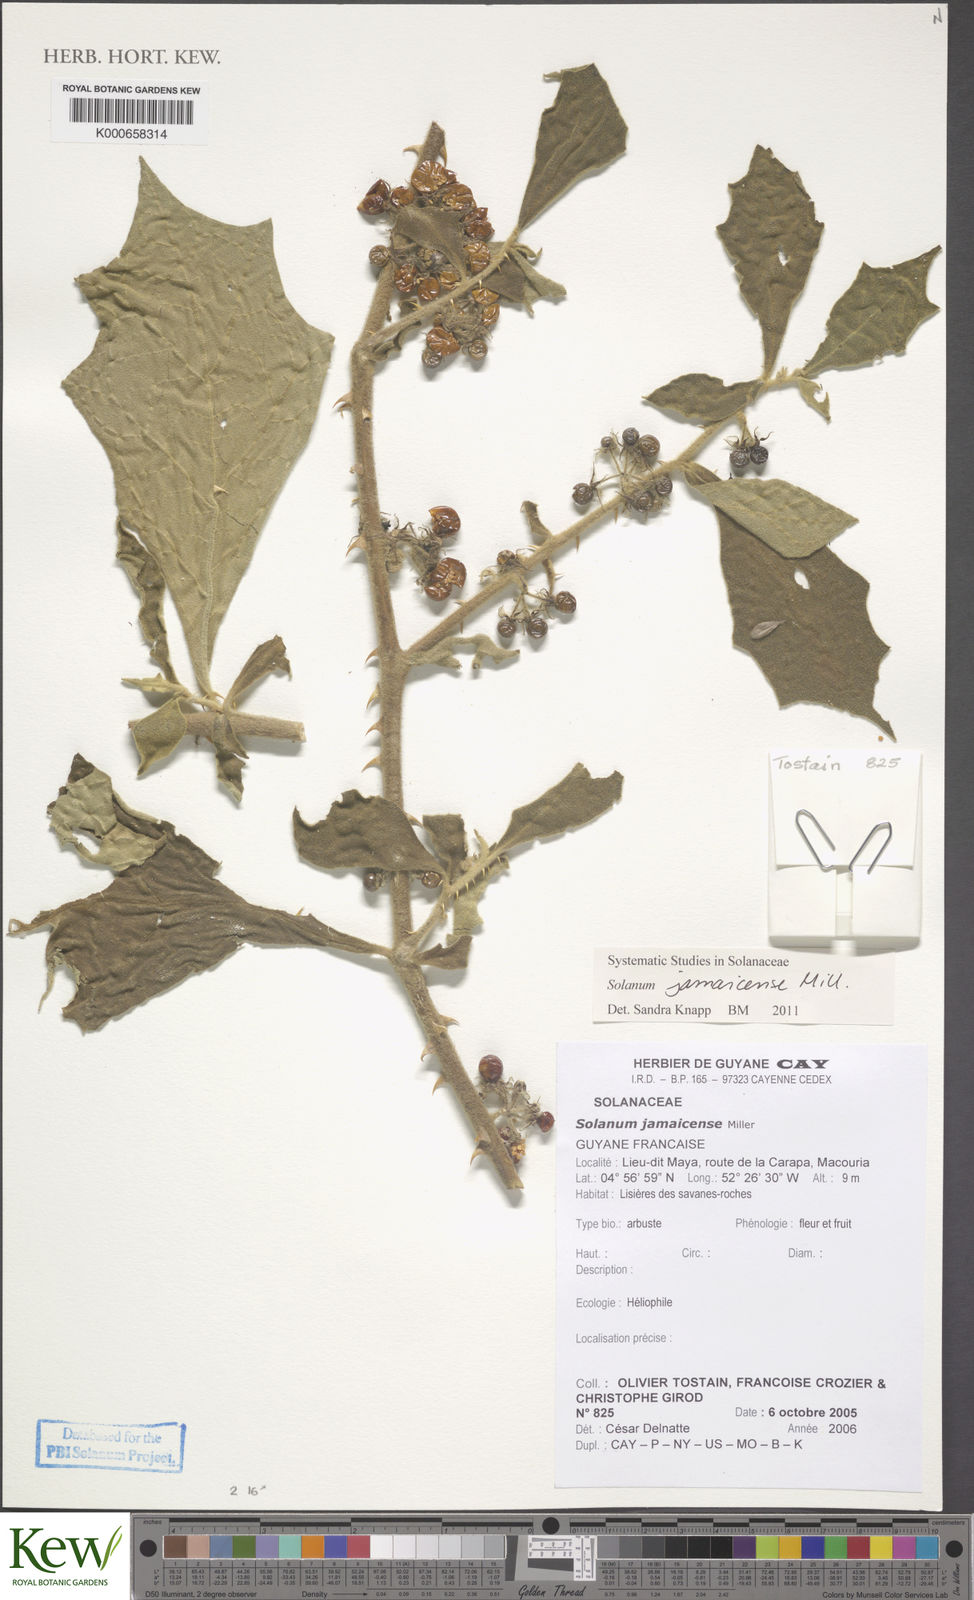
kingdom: Plantae
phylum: Tracheophyta
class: Magnoliopsida
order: Solanales
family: Solanaceae
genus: Solanum
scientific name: Solanum jamaicense
